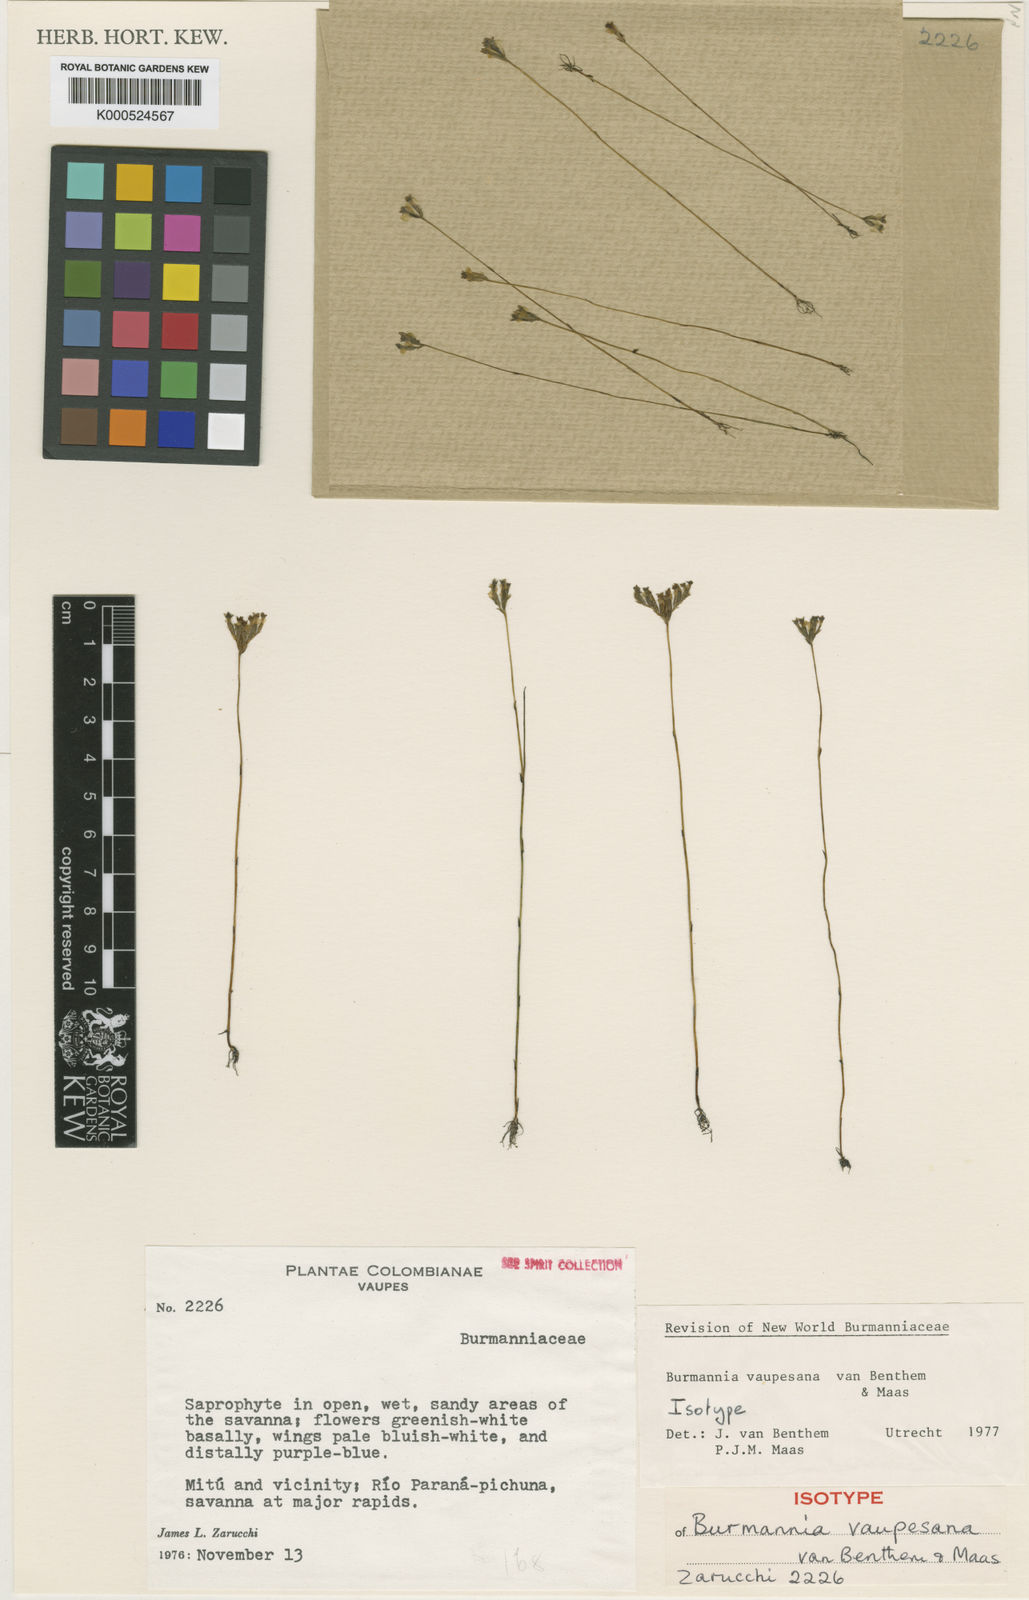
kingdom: Plantae
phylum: Tracheophyta
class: Liliopsida
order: Dioscoreales
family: Burmanniaceae
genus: Burmannia
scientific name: Burmannia vaupesiana
